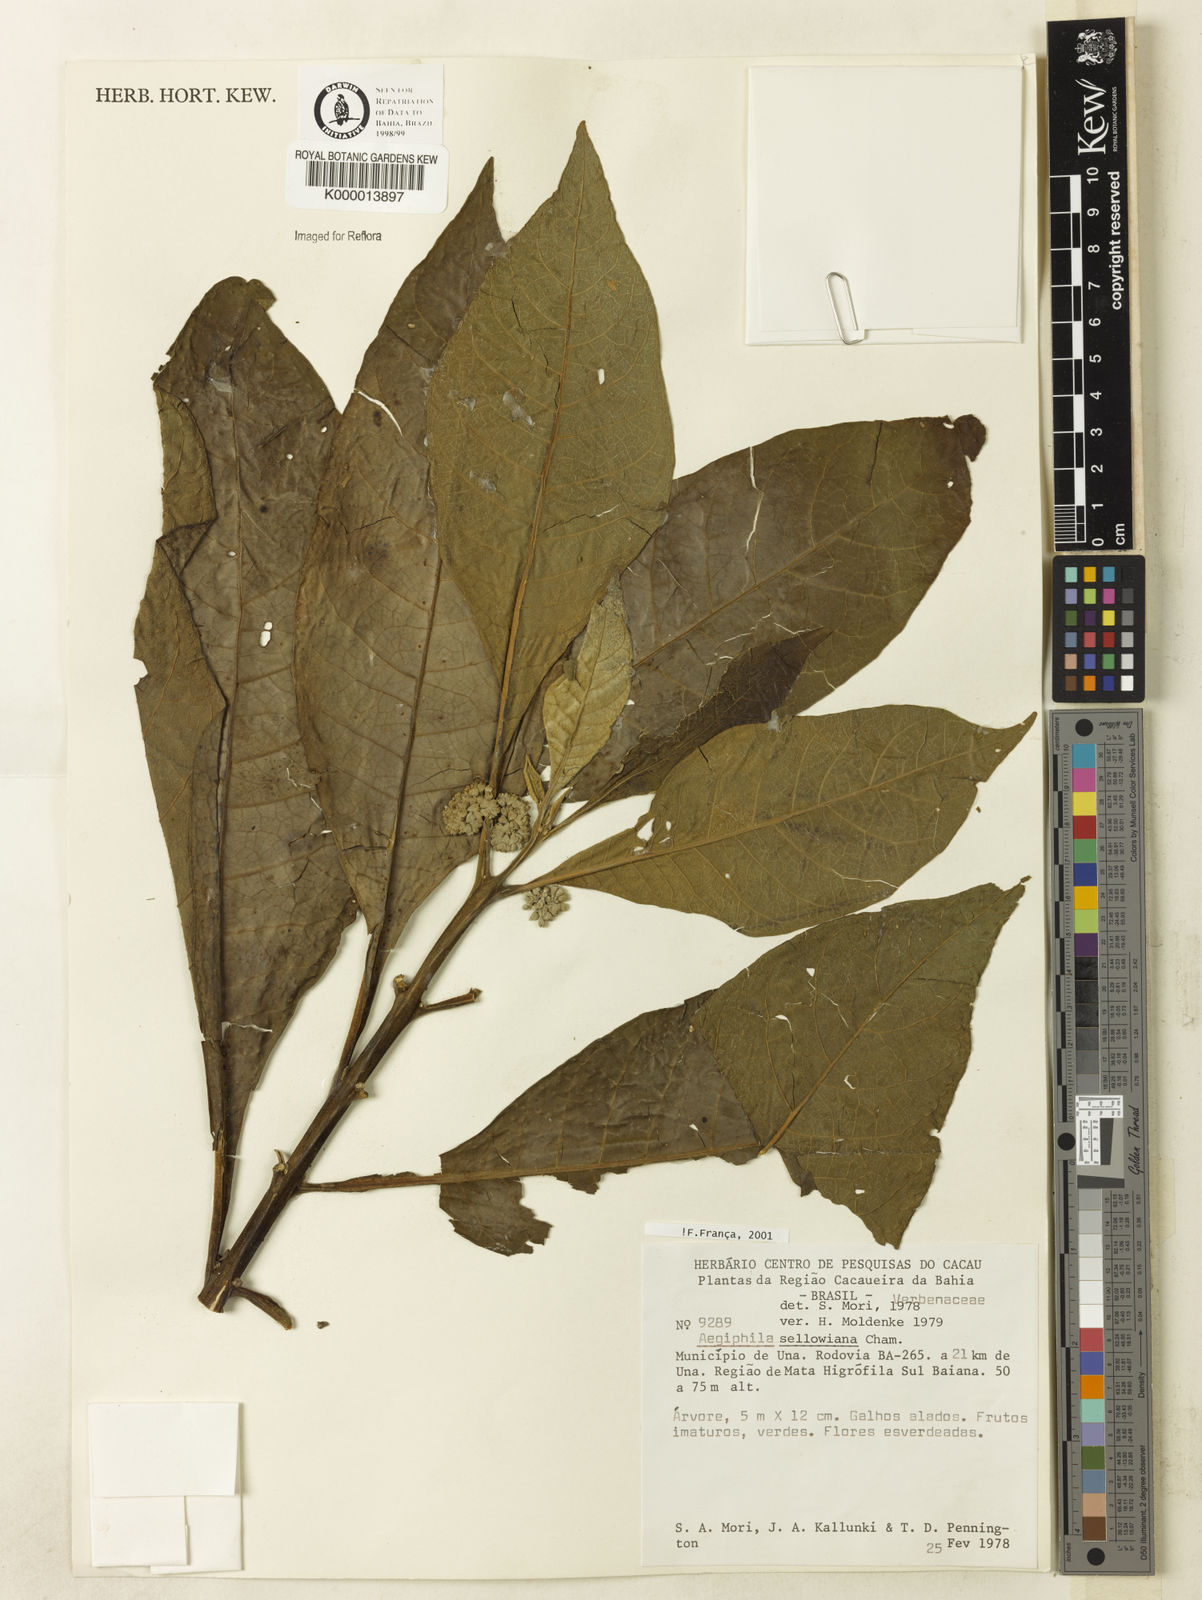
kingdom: Plantae
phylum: Tracheophyta
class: Magnoliopsida
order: Lamiales
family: Lamiaceae
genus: Aegiphila
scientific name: Aegiphila verticillata
